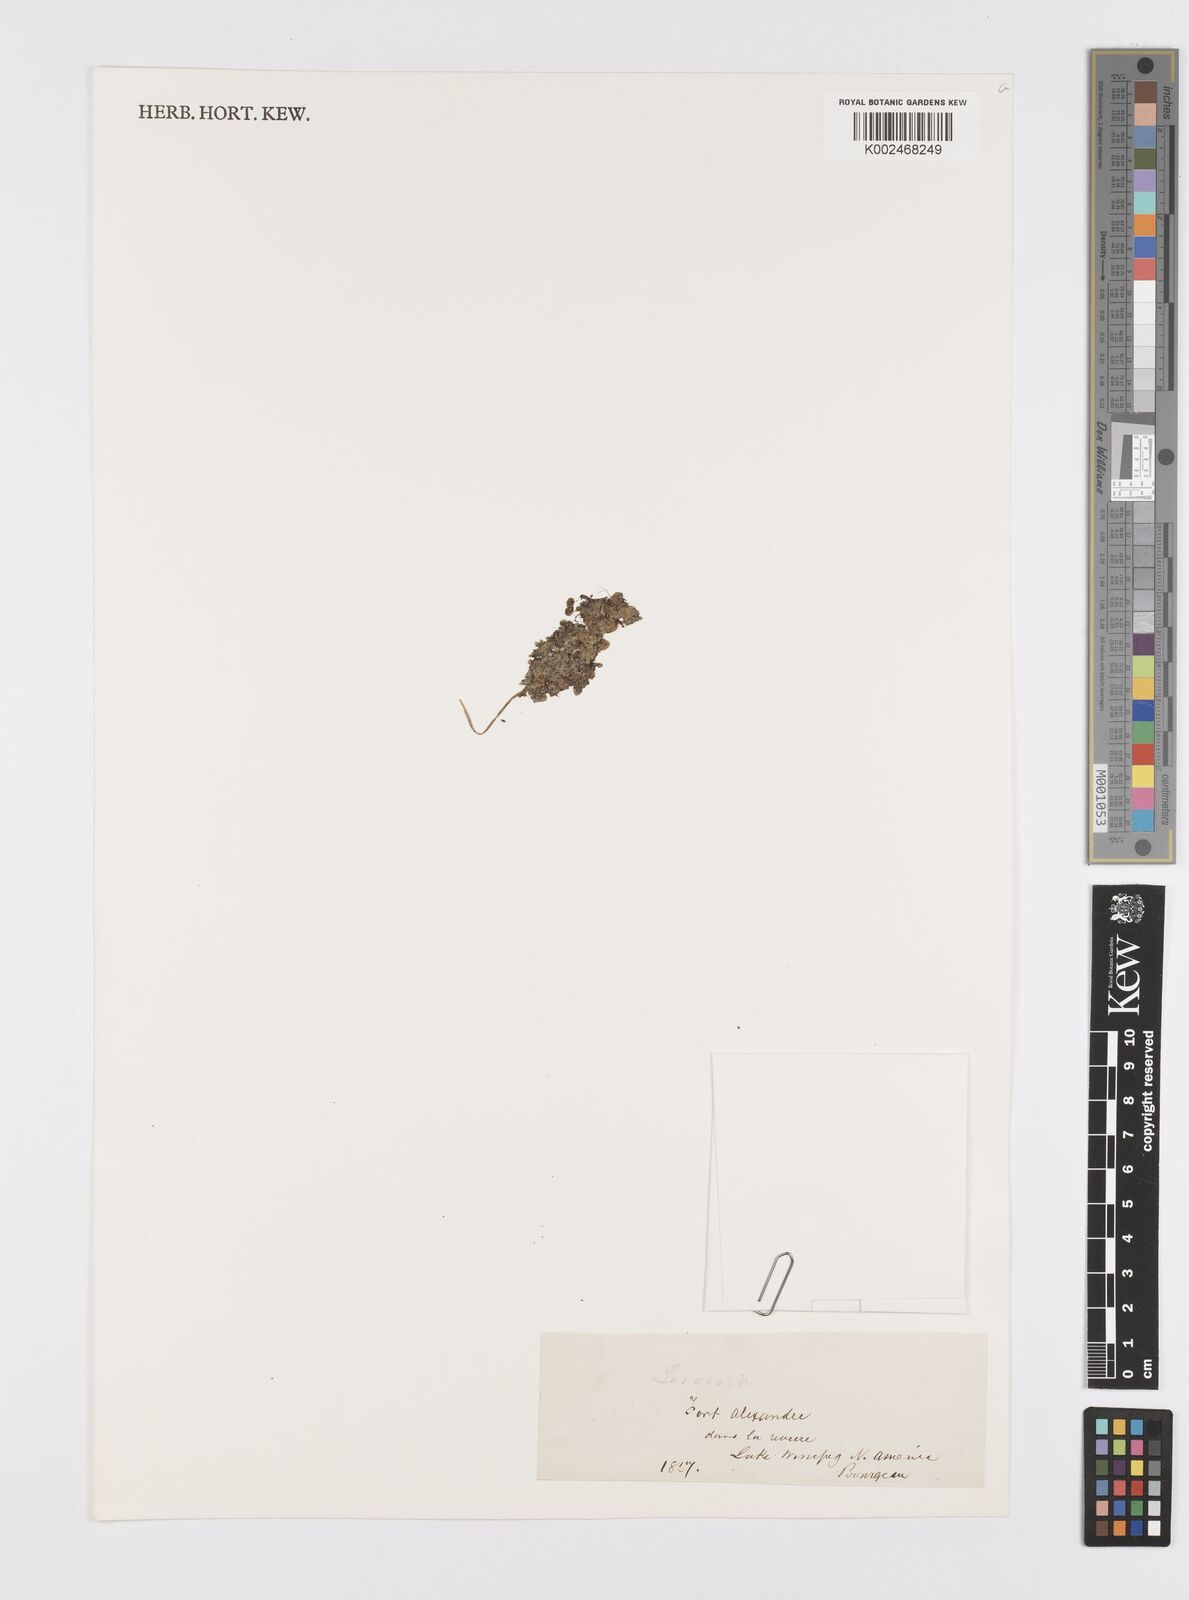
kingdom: Plantae
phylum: Tracheophyta
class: Liliopsida
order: Alismatales
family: Araceae
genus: Lemna
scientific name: Lemna
